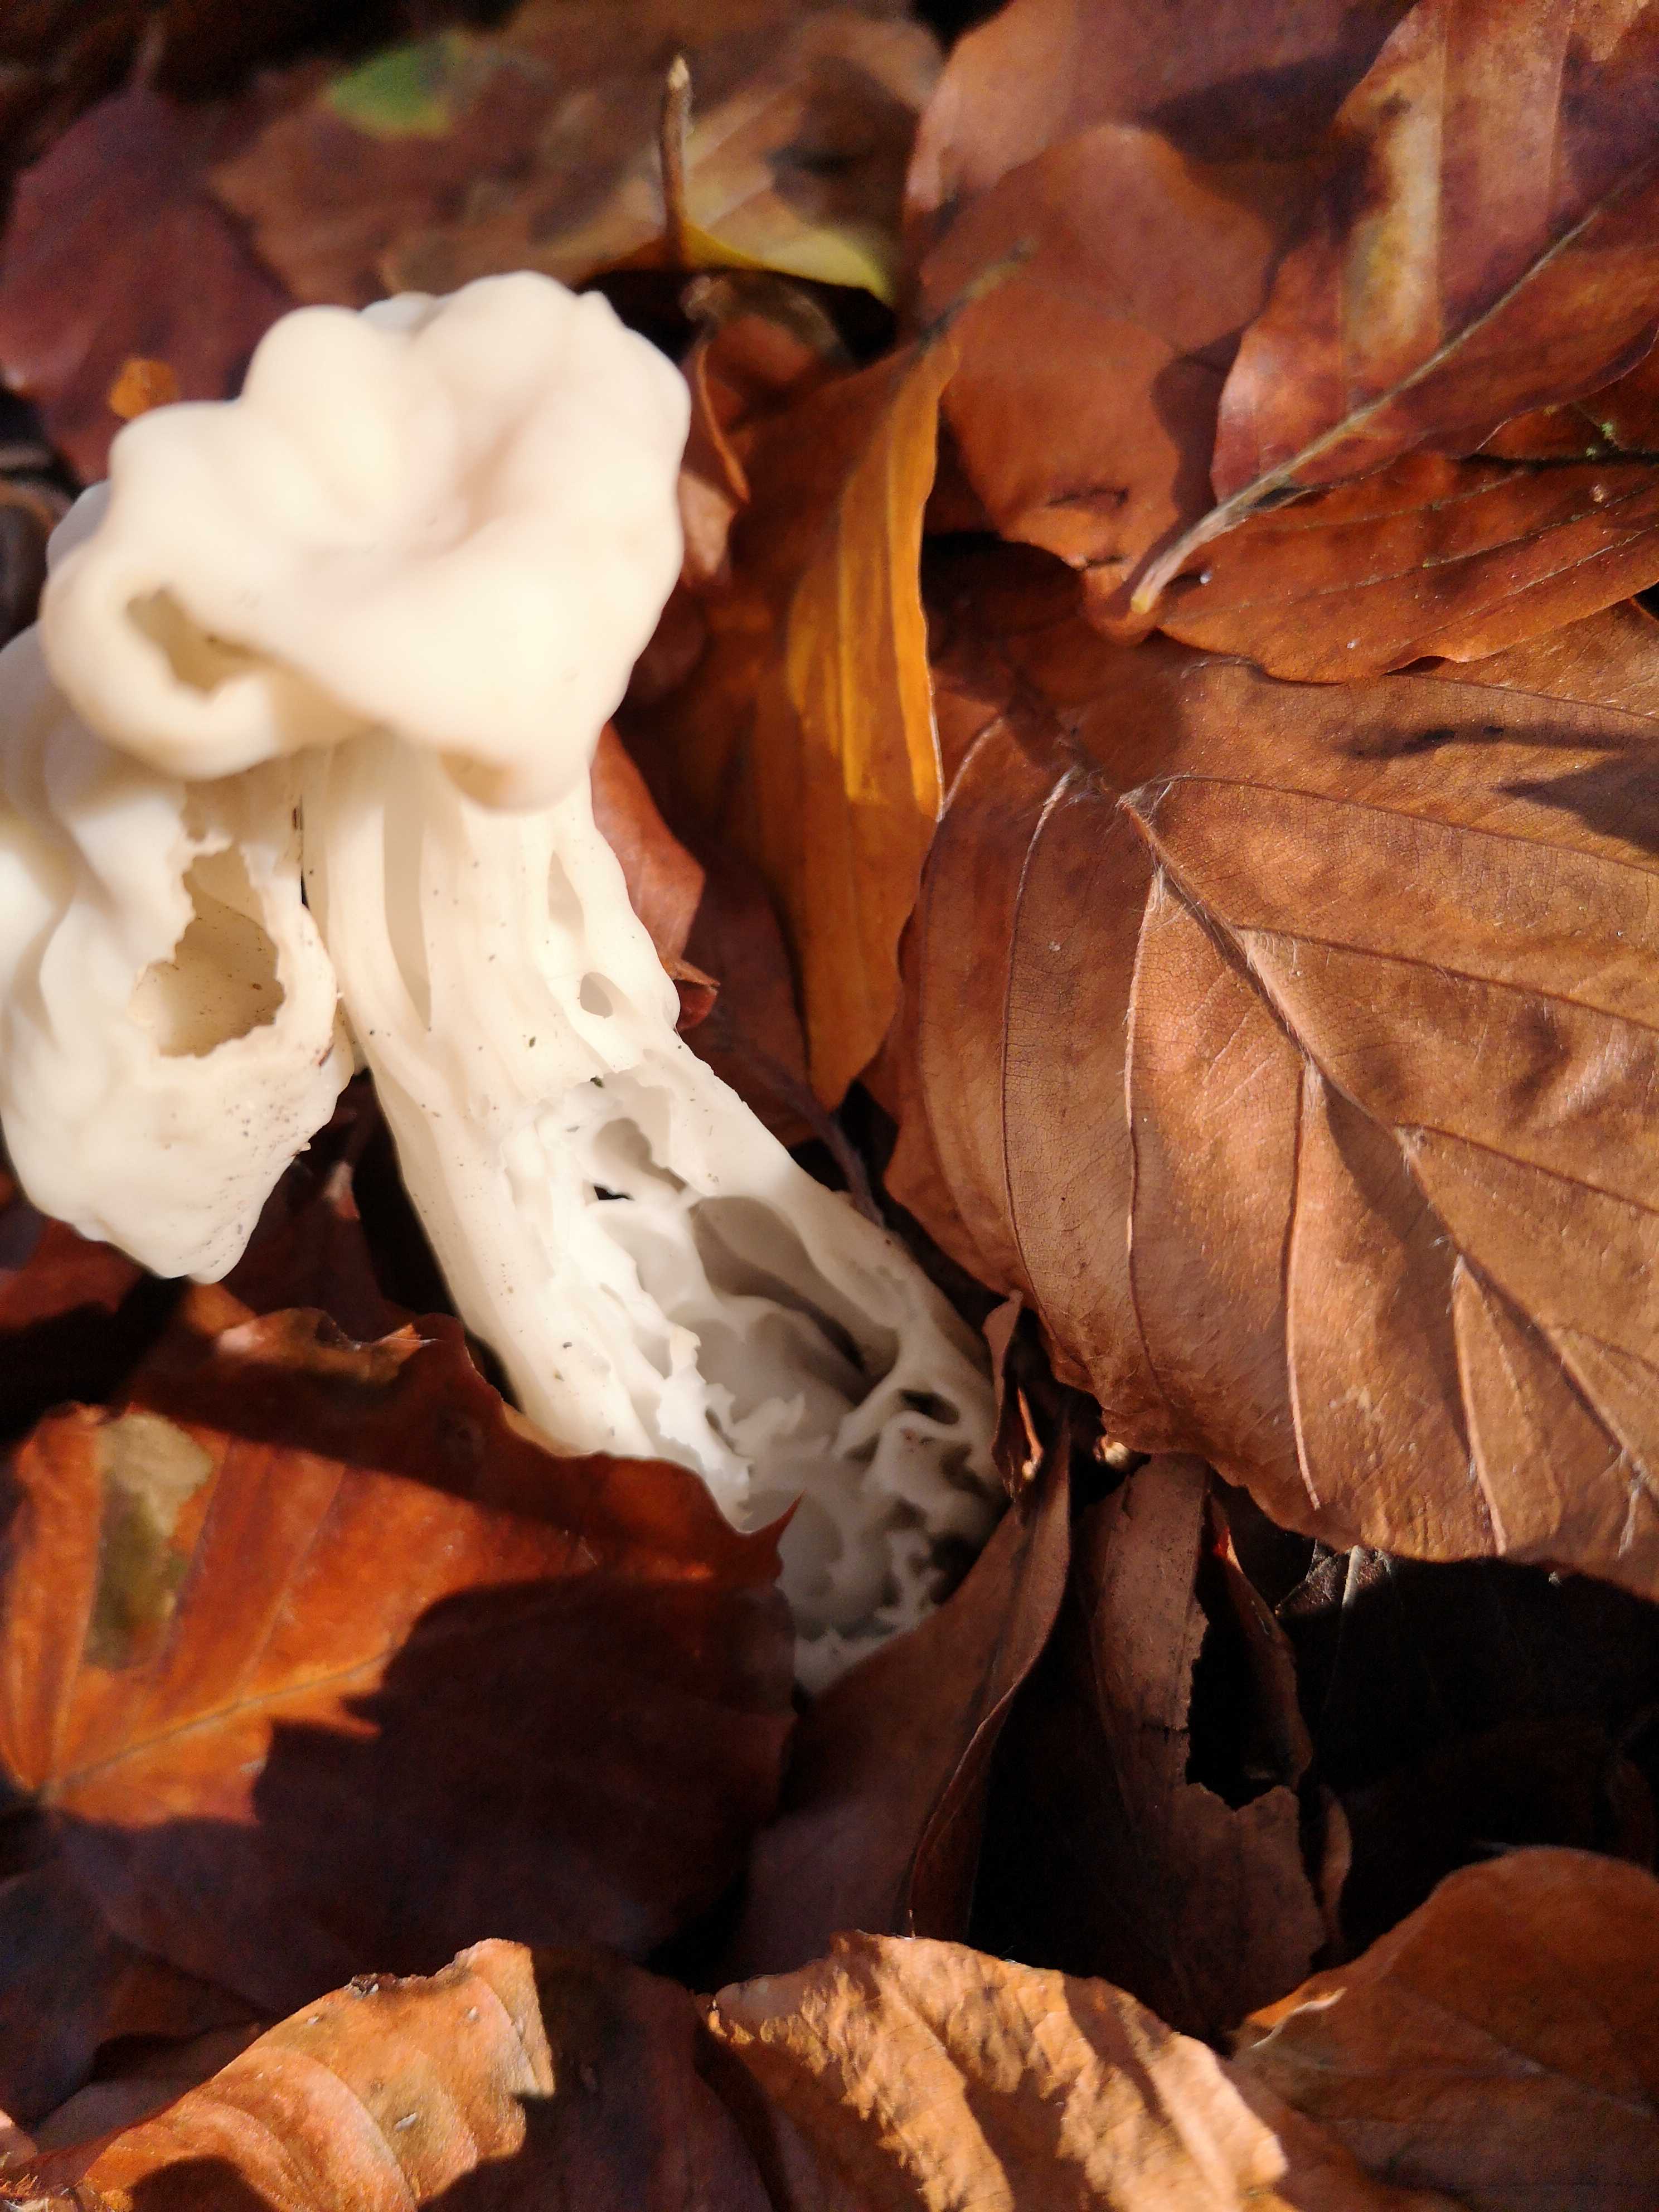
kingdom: Fungi
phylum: Ascomycota
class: Pezizomycetes
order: Pezizales
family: Helvellaceae
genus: Helvella
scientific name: Helvella crispa
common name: kruset foldhat
